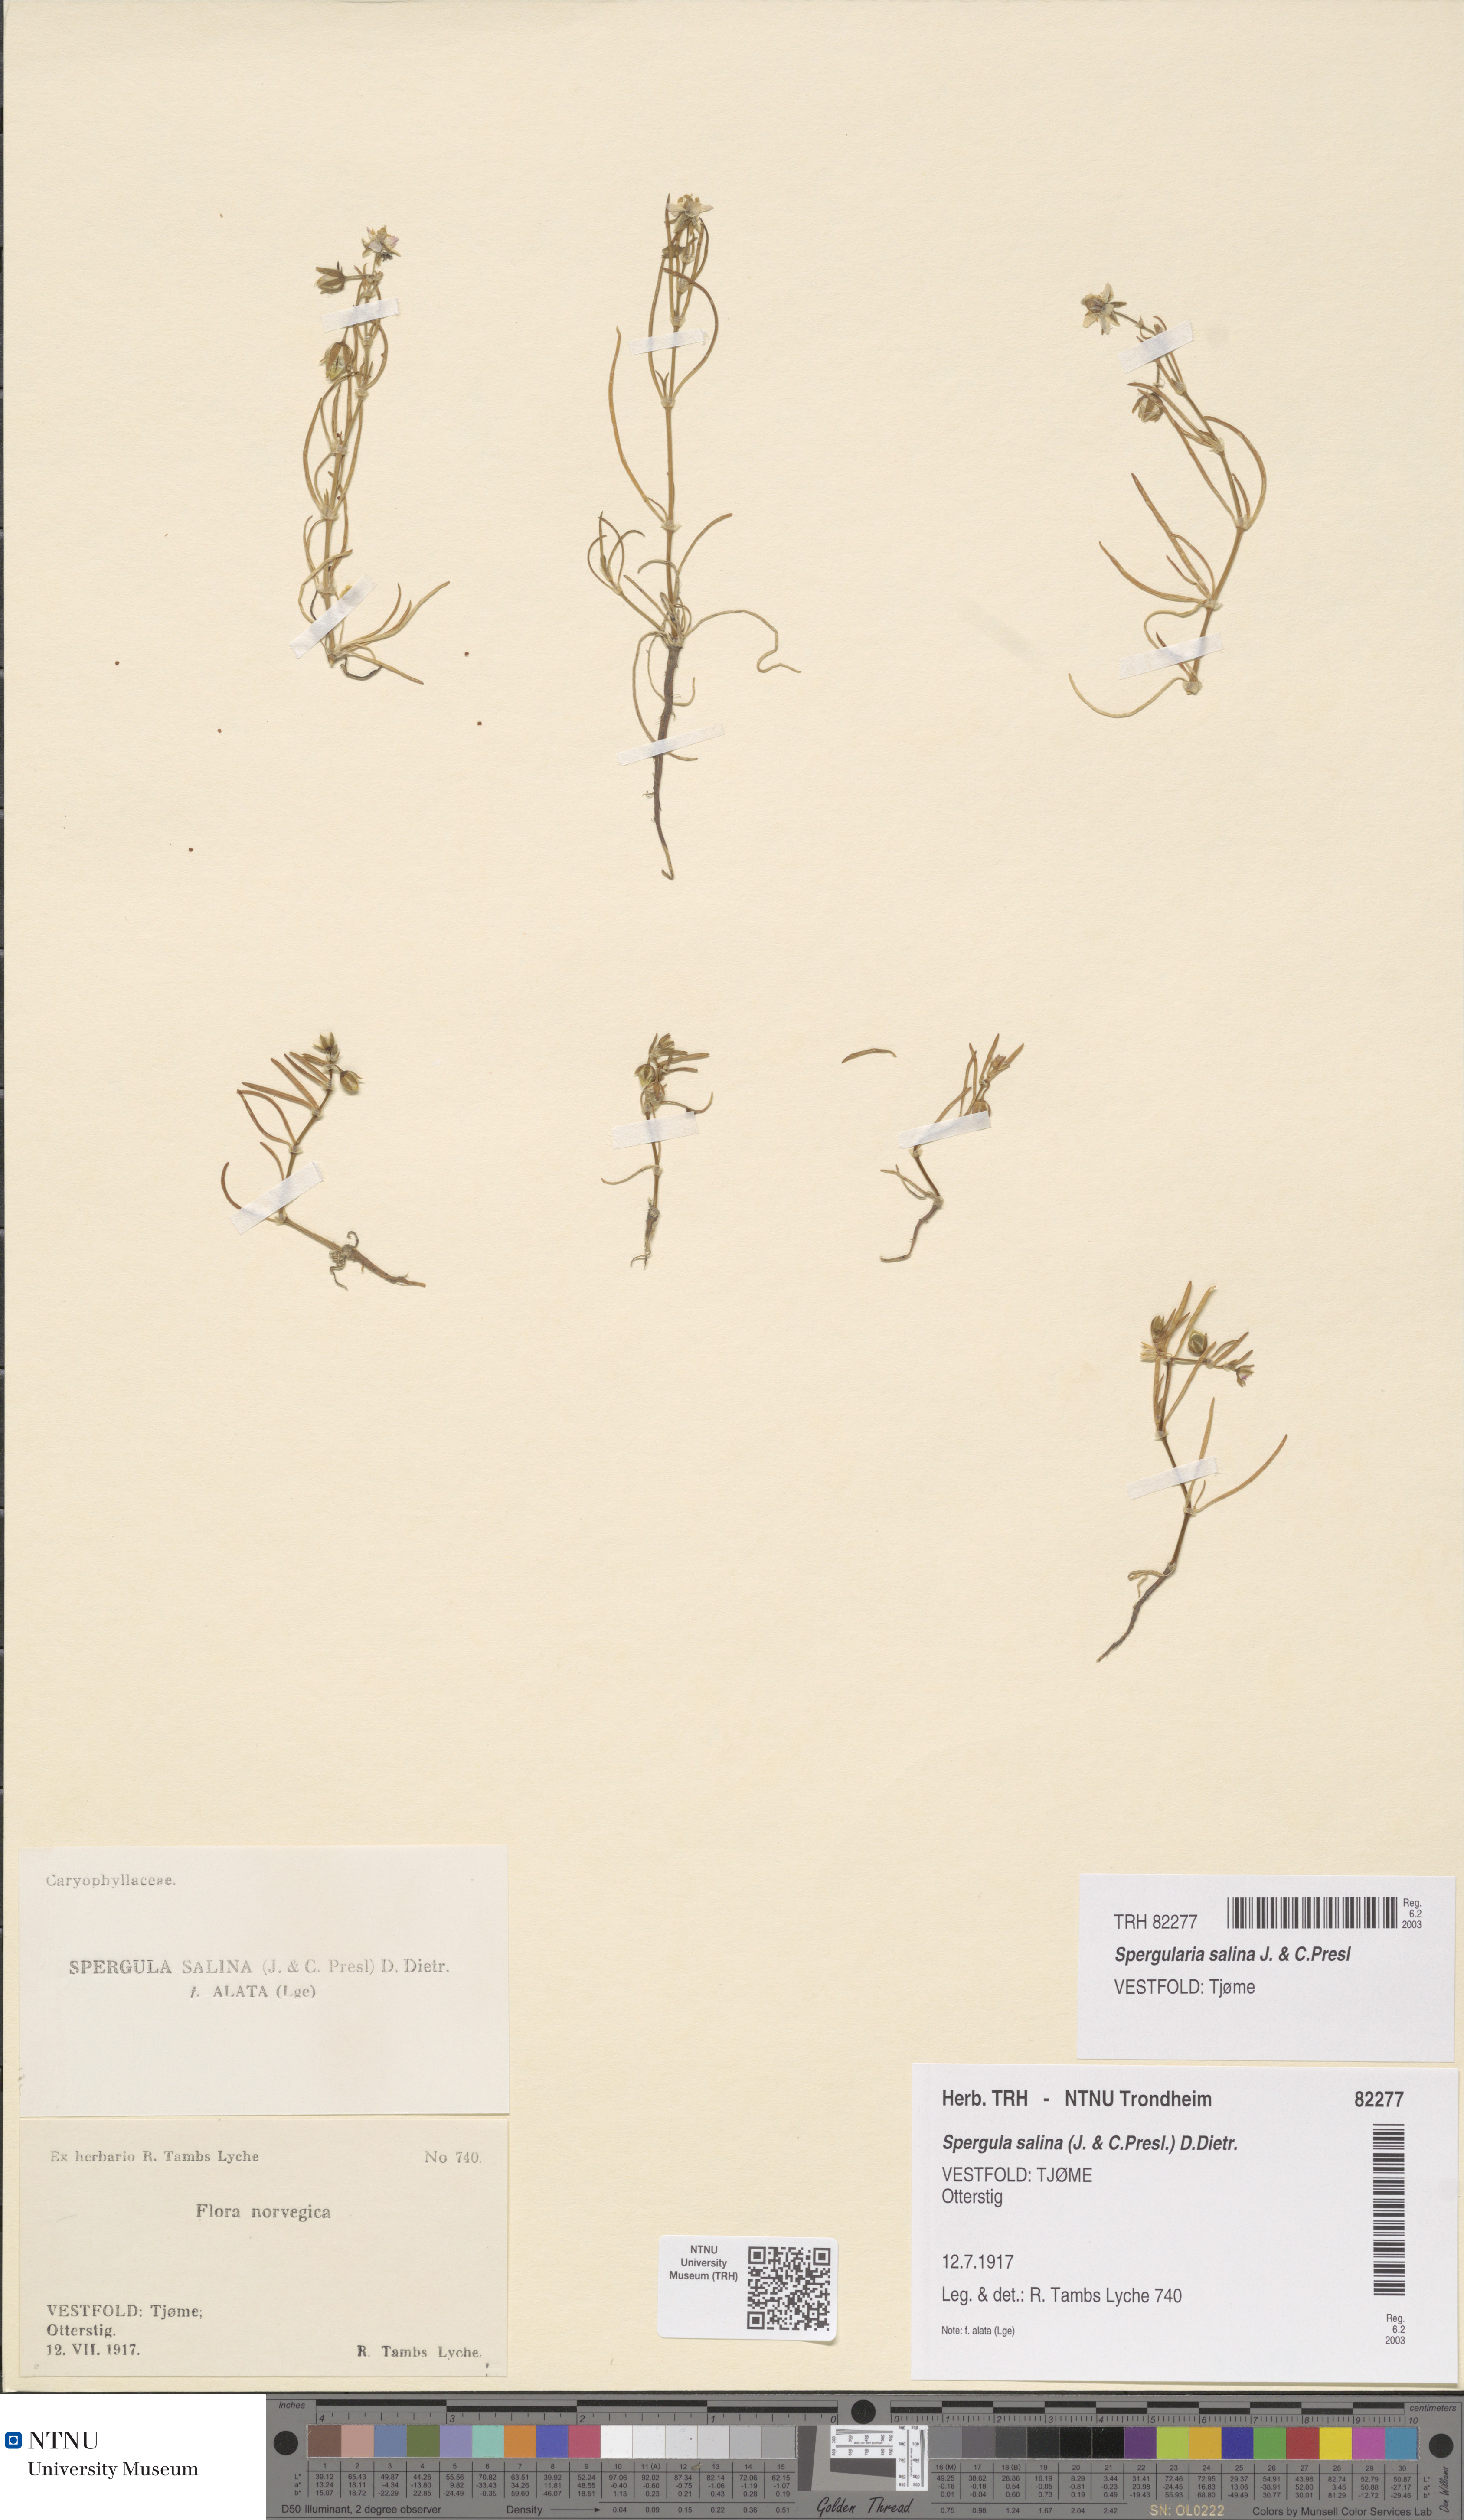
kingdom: Plantae
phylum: Tracheophyta
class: Magnoliopsida
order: Caryophyllales
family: Caryophyllaceae
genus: Spergularia
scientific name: Spergularia marina
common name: Lesser sea-spurrey
